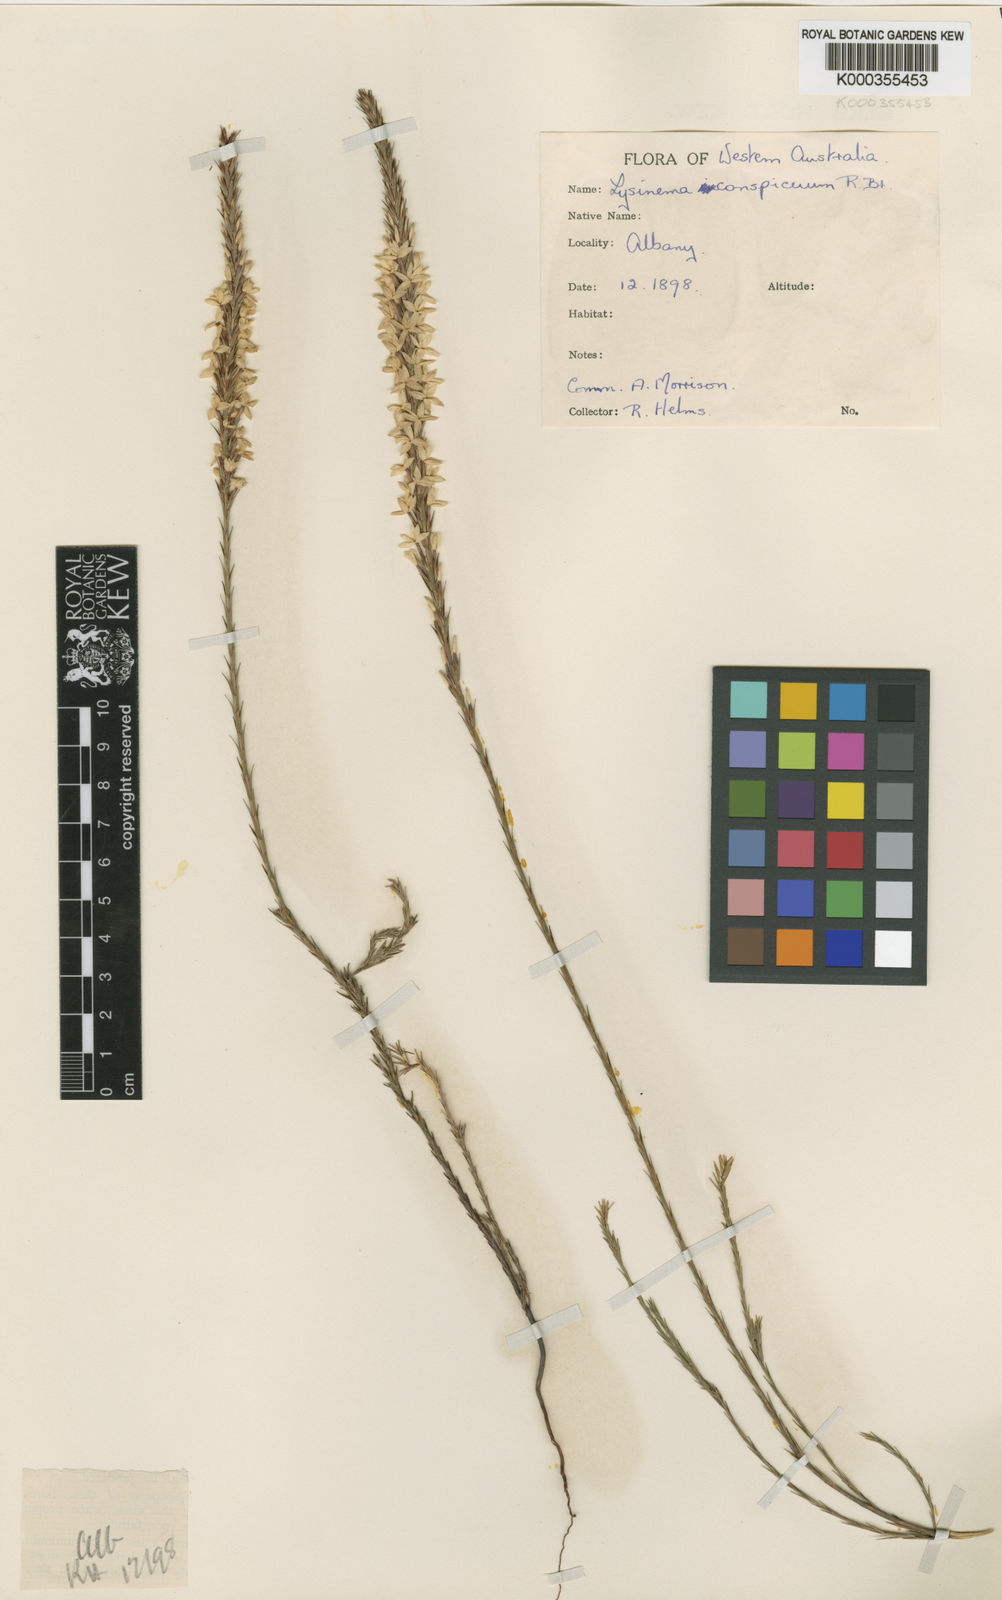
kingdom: Plantae
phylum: Tracheophyta
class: Magnoliopsida
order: Ericales
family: Ericaceae
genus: Lysinema
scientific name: Lysinema conspicuum
